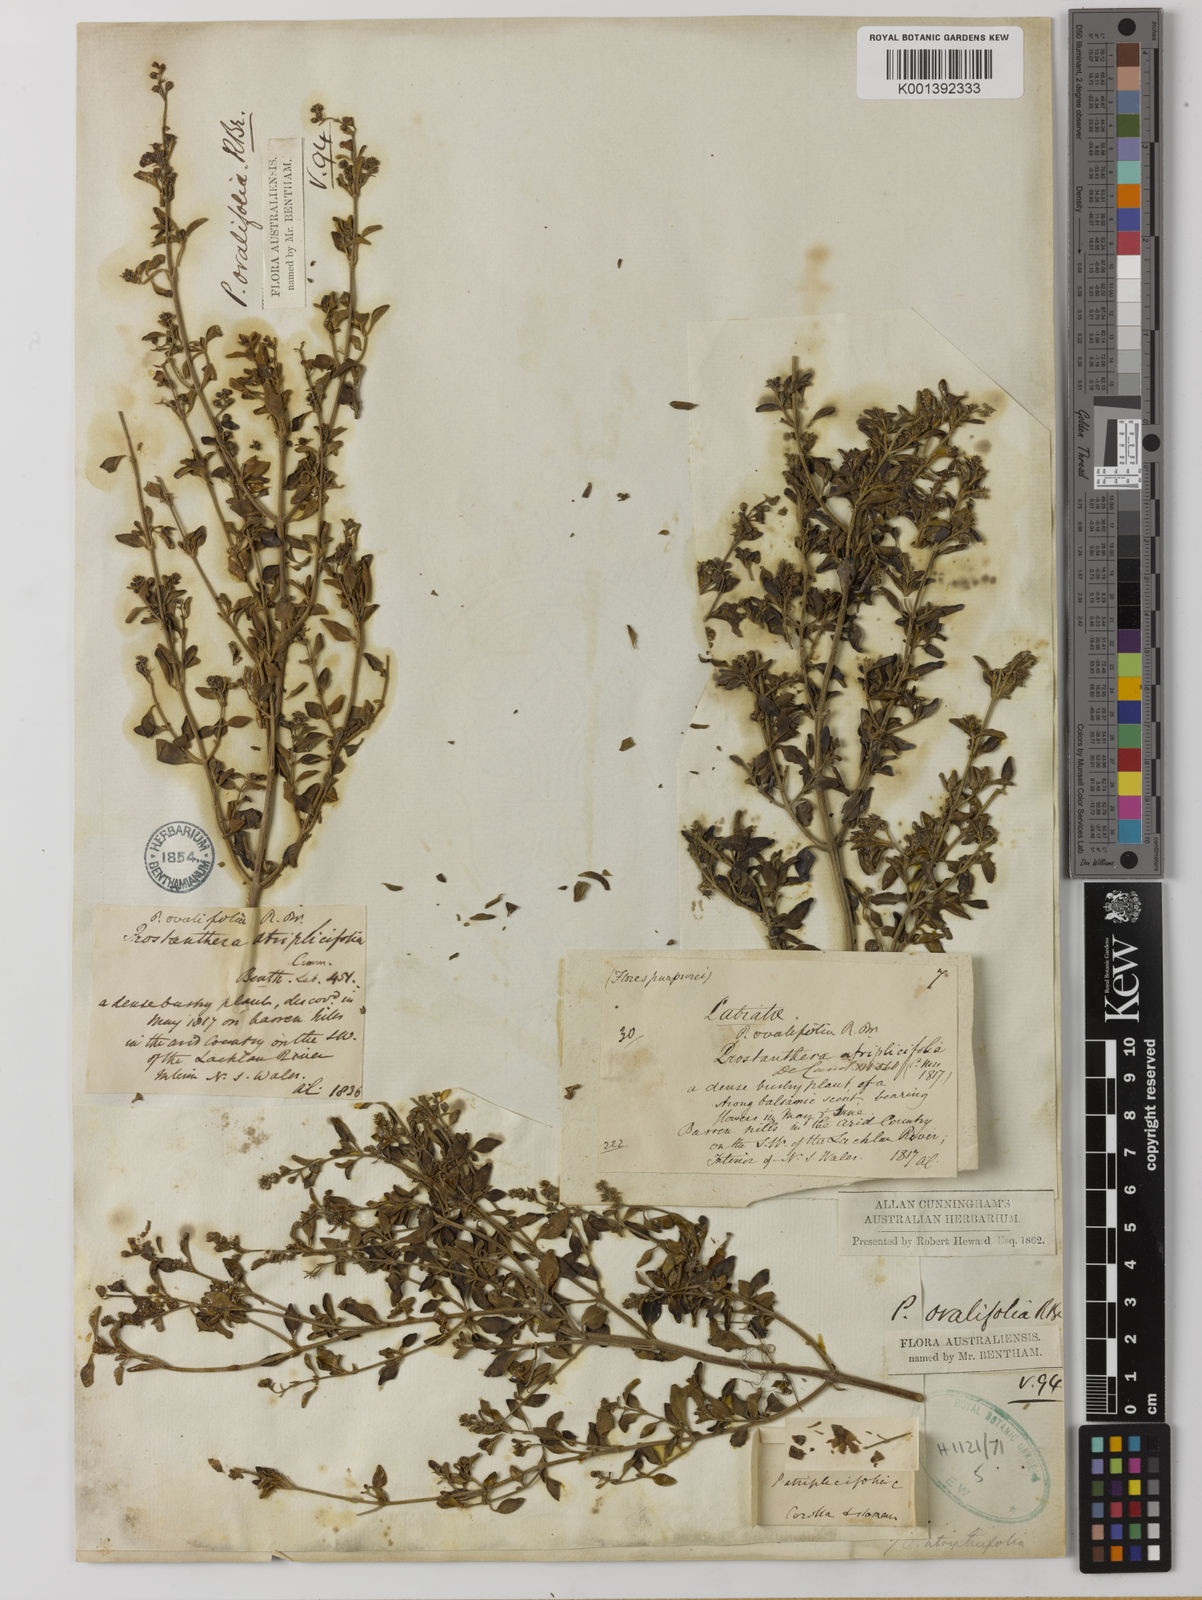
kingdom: Plantae
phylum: Tracheophyta
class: Magnoliopsida
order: Lamiales
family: Lamiaceae
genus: Prostanthera
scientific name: Prostanthera ovalifolia
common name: Purple mintbush
